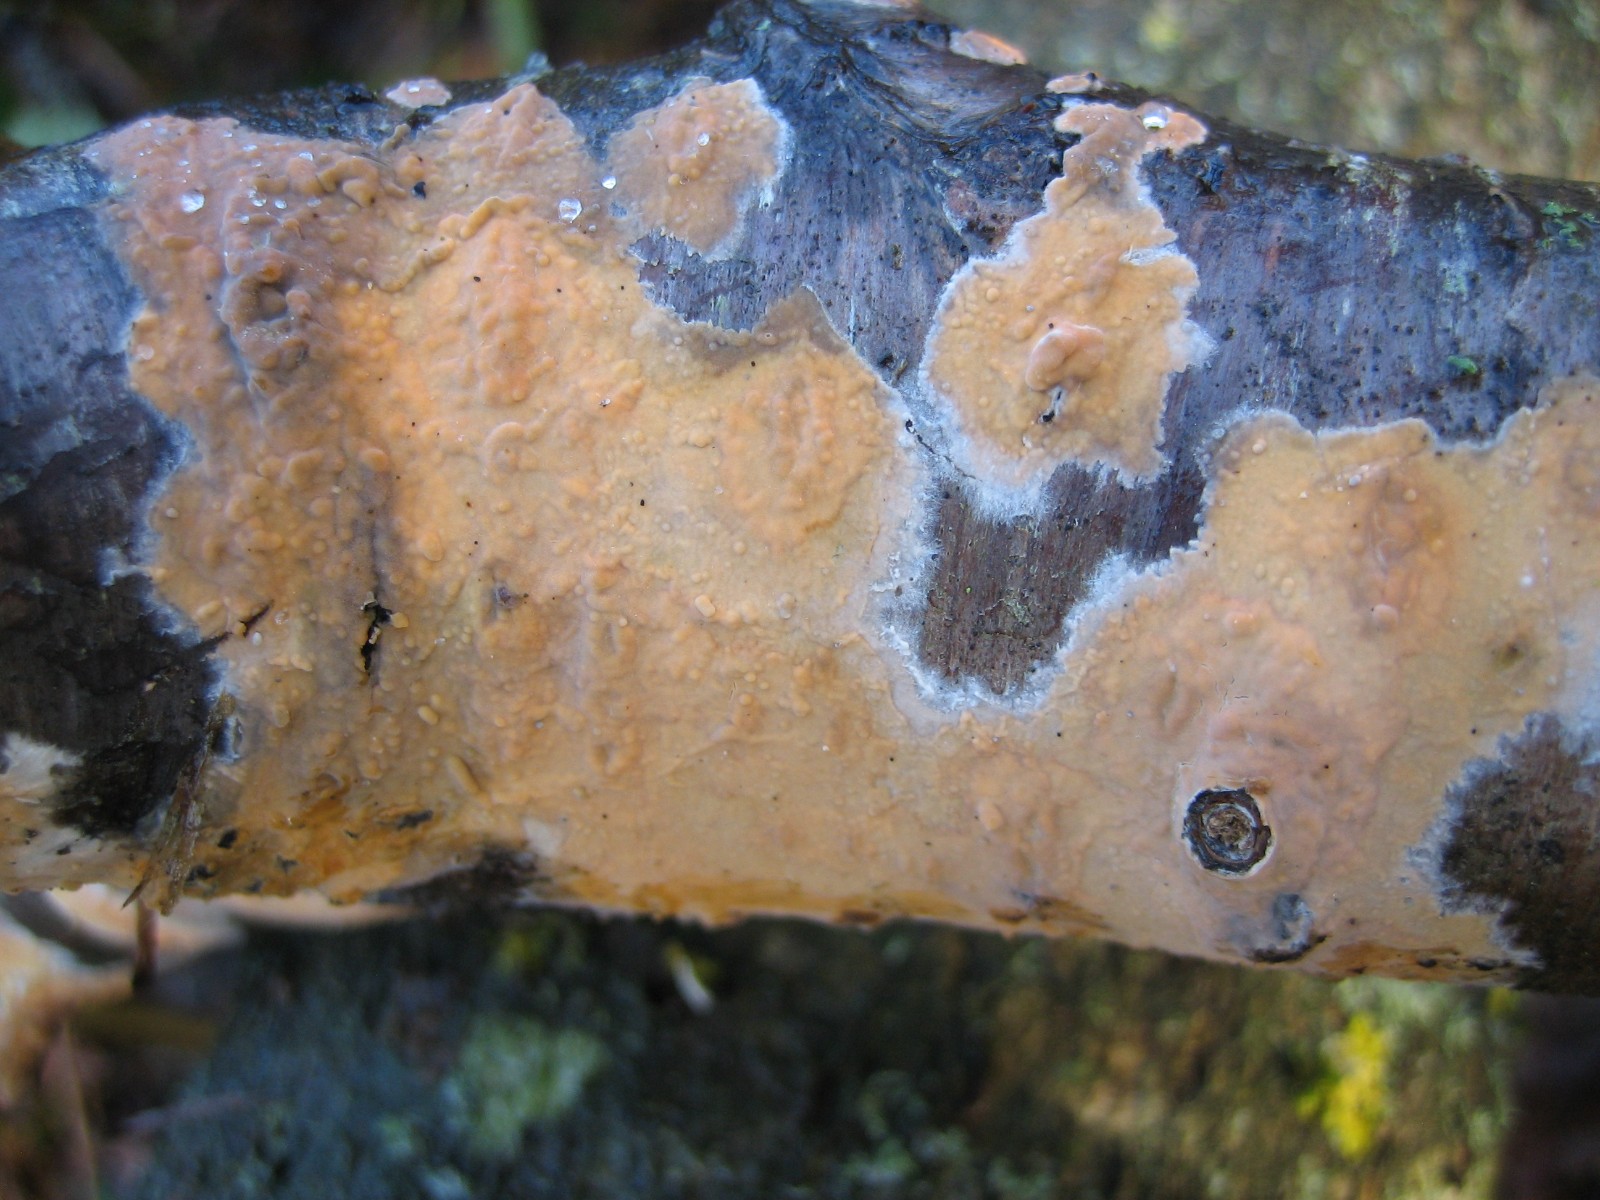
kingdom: Fungi
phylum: Basidiomycota
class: Agaricomycetes
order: Russulales
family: Peniophoraceae
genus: Peniophora
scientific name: Peniophora incarnata
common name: laksefarvet voksskind
